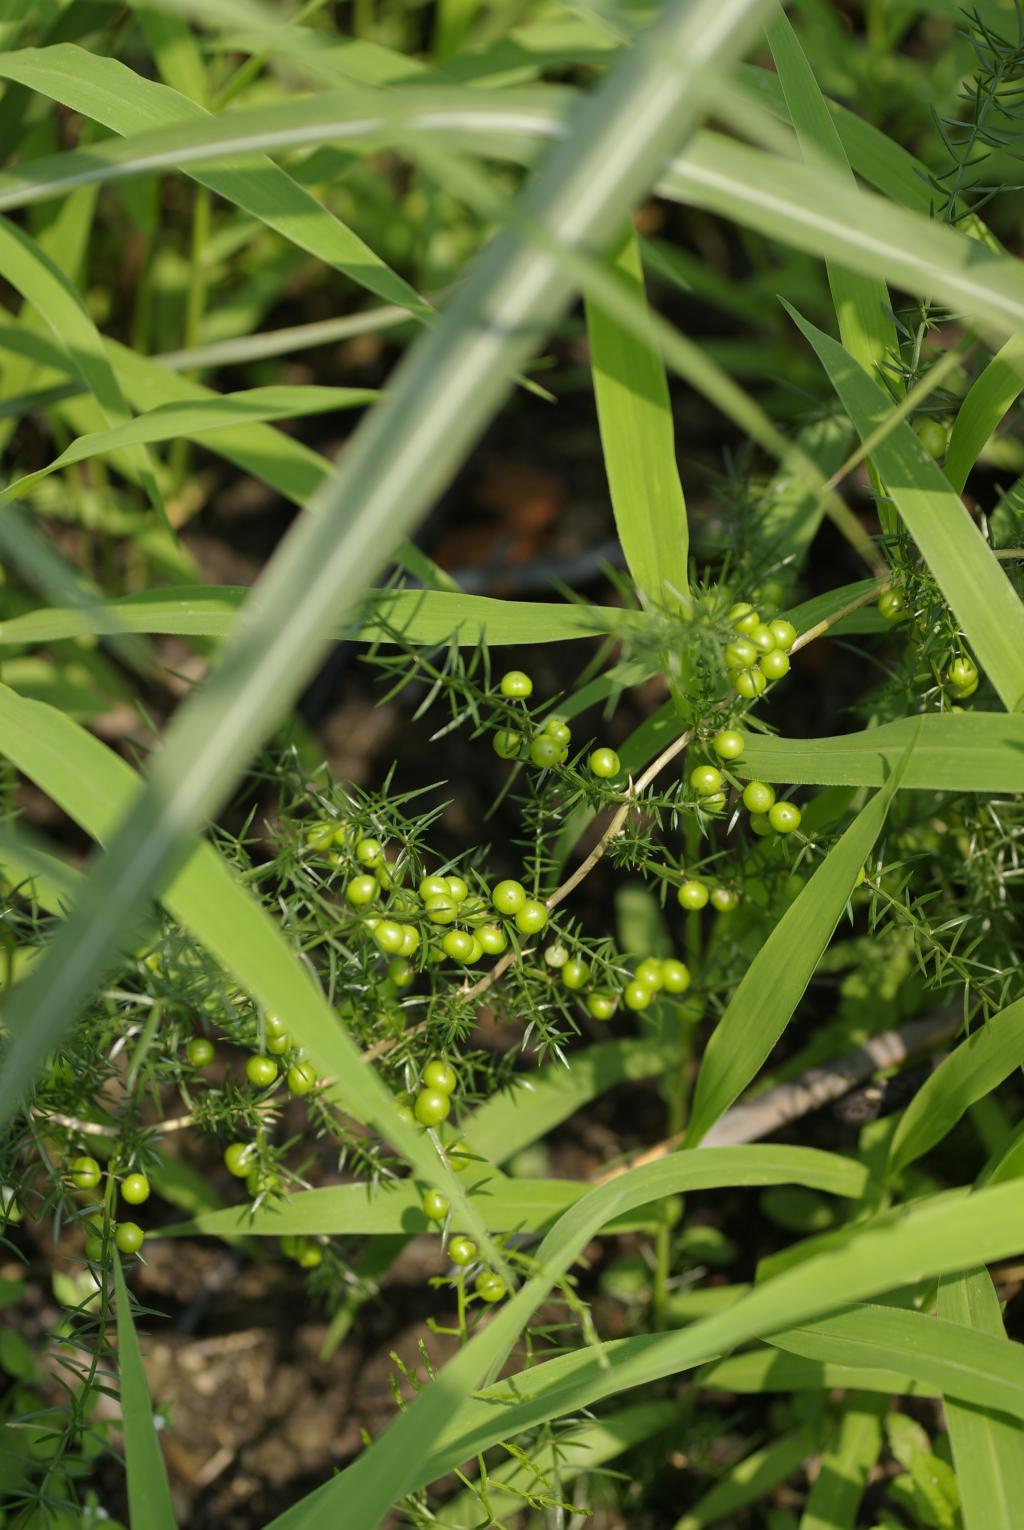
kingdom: Plantae
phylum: Tracheophyta
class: Liliopsida
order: Asparagales
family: Asparagaceae
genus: Asparagus
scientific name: Asparagus cochinchinensis
